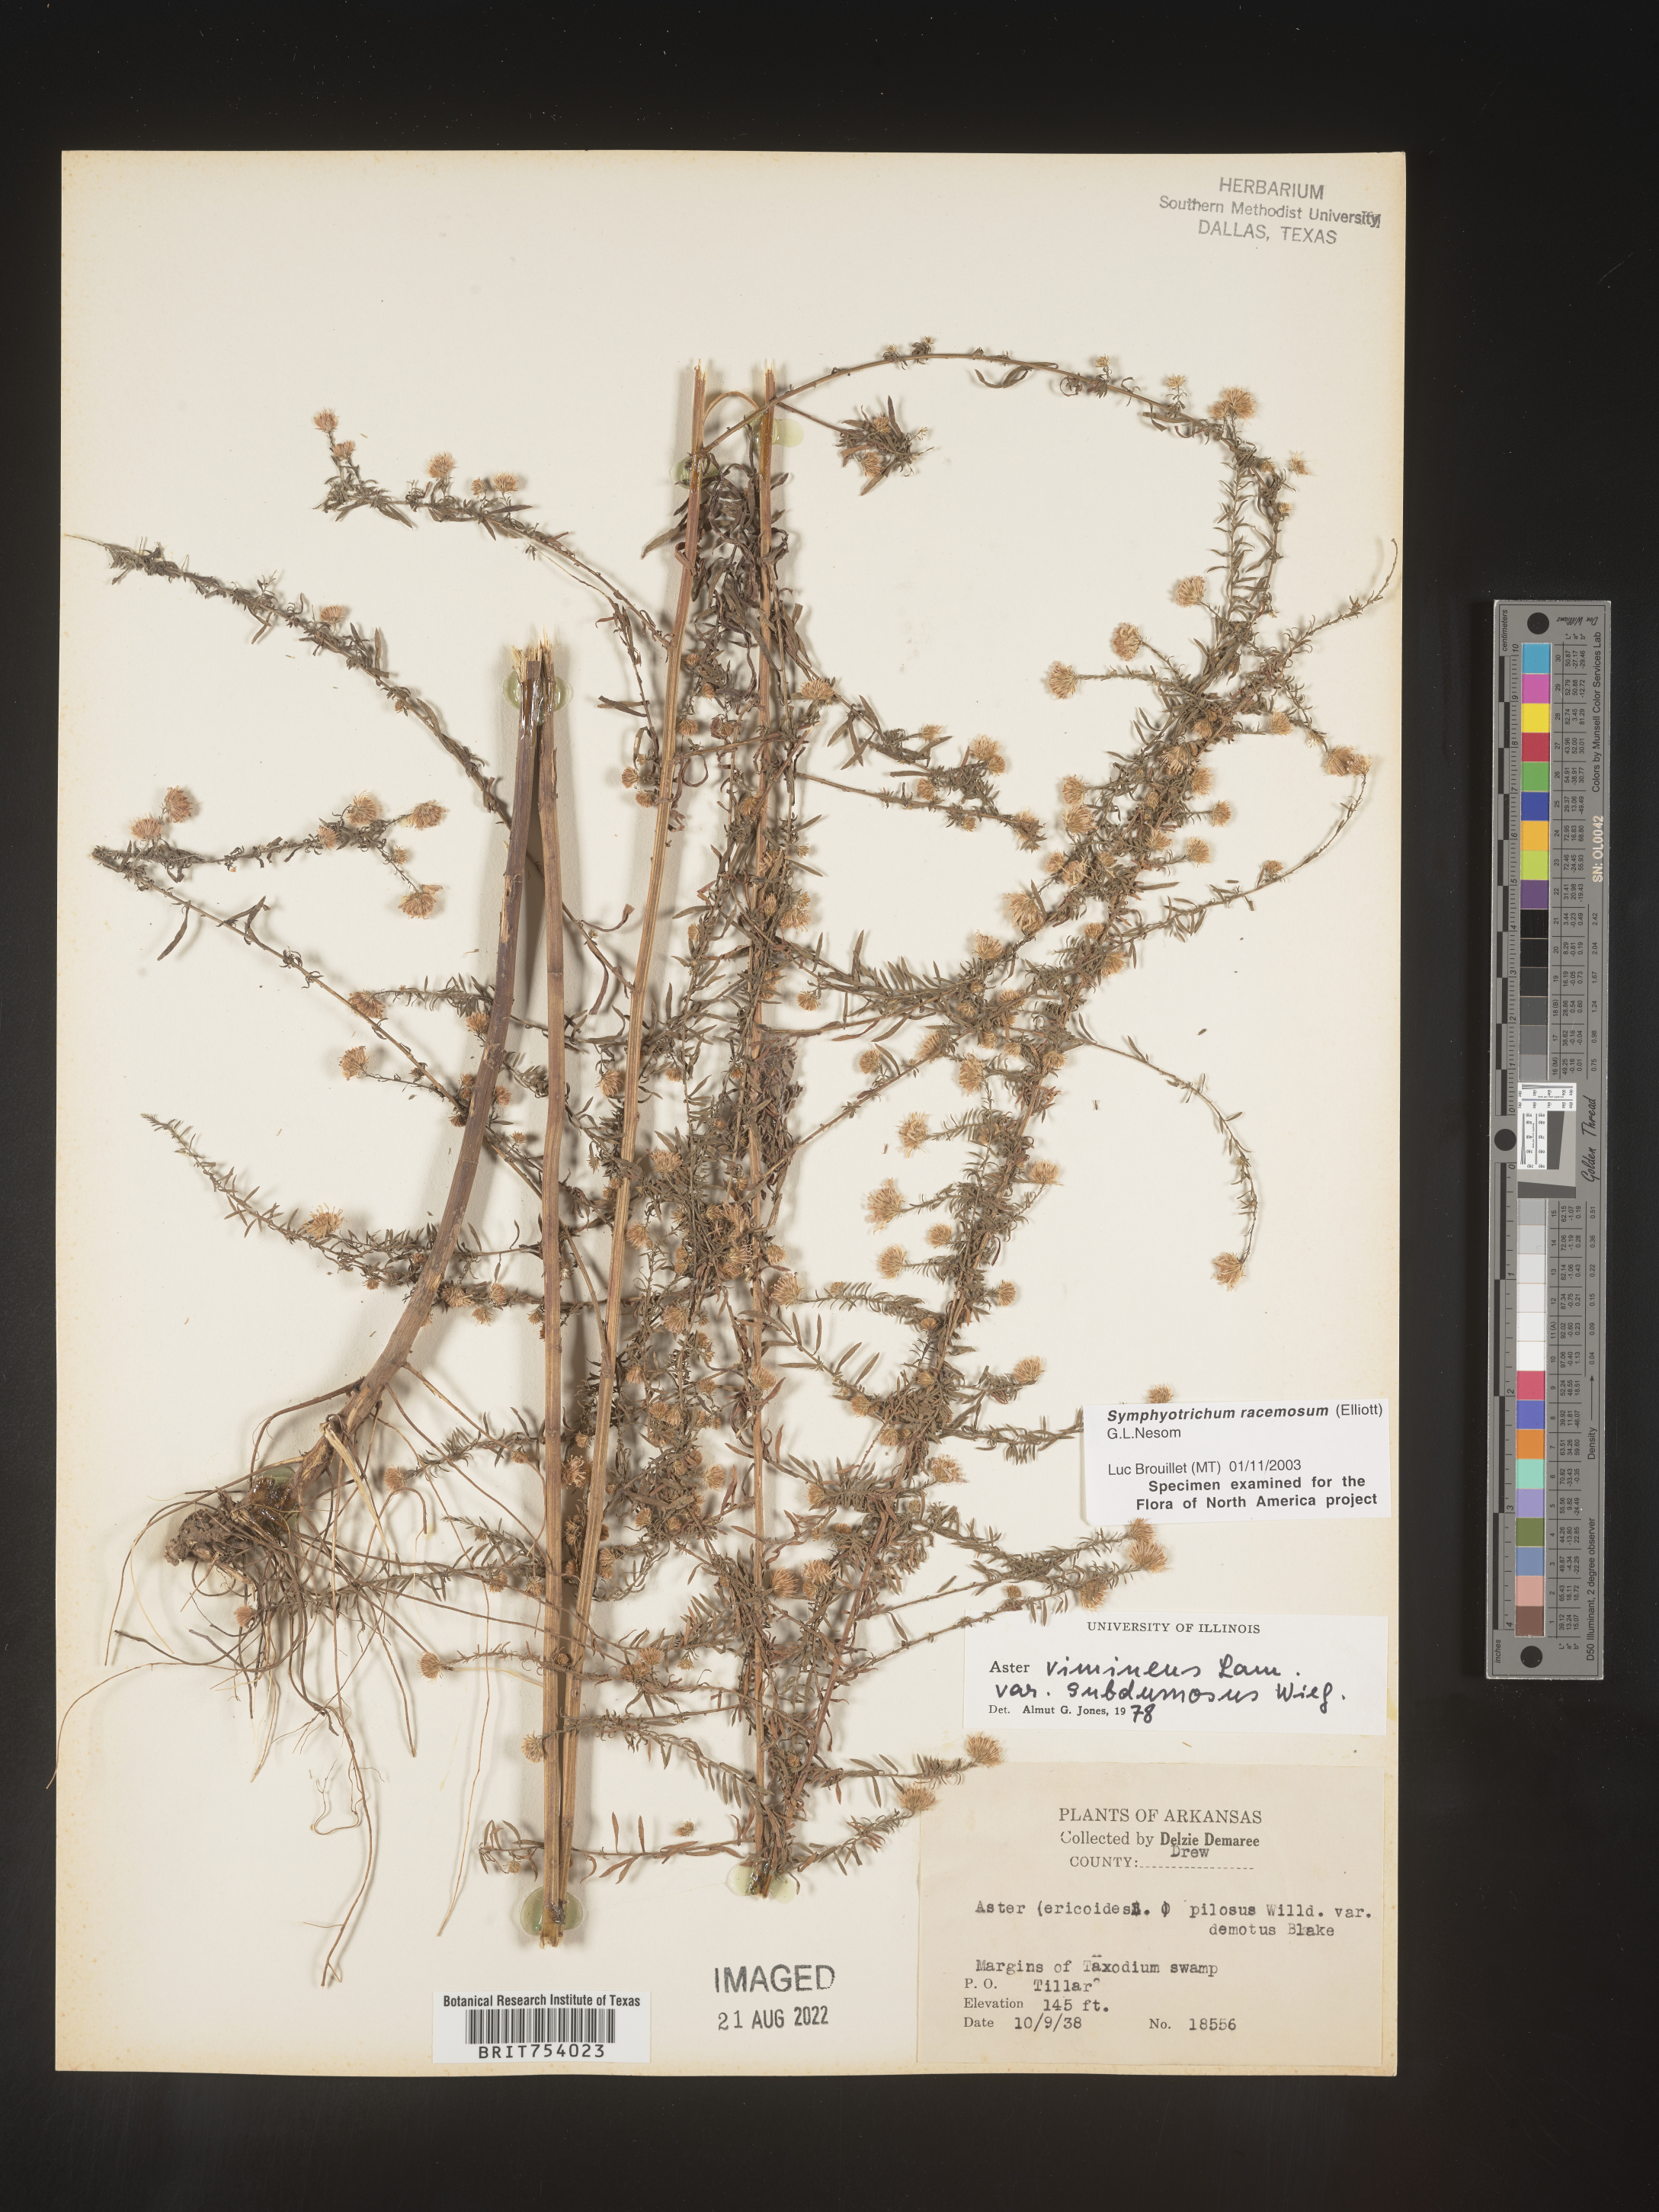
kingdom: Plantae
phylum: Tracheophyta
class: Magnoliopsida
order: Asterales
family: Asteraceae
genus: Symphyotrichum
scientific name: Symphyotrichum racemosum
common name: Small white aster
